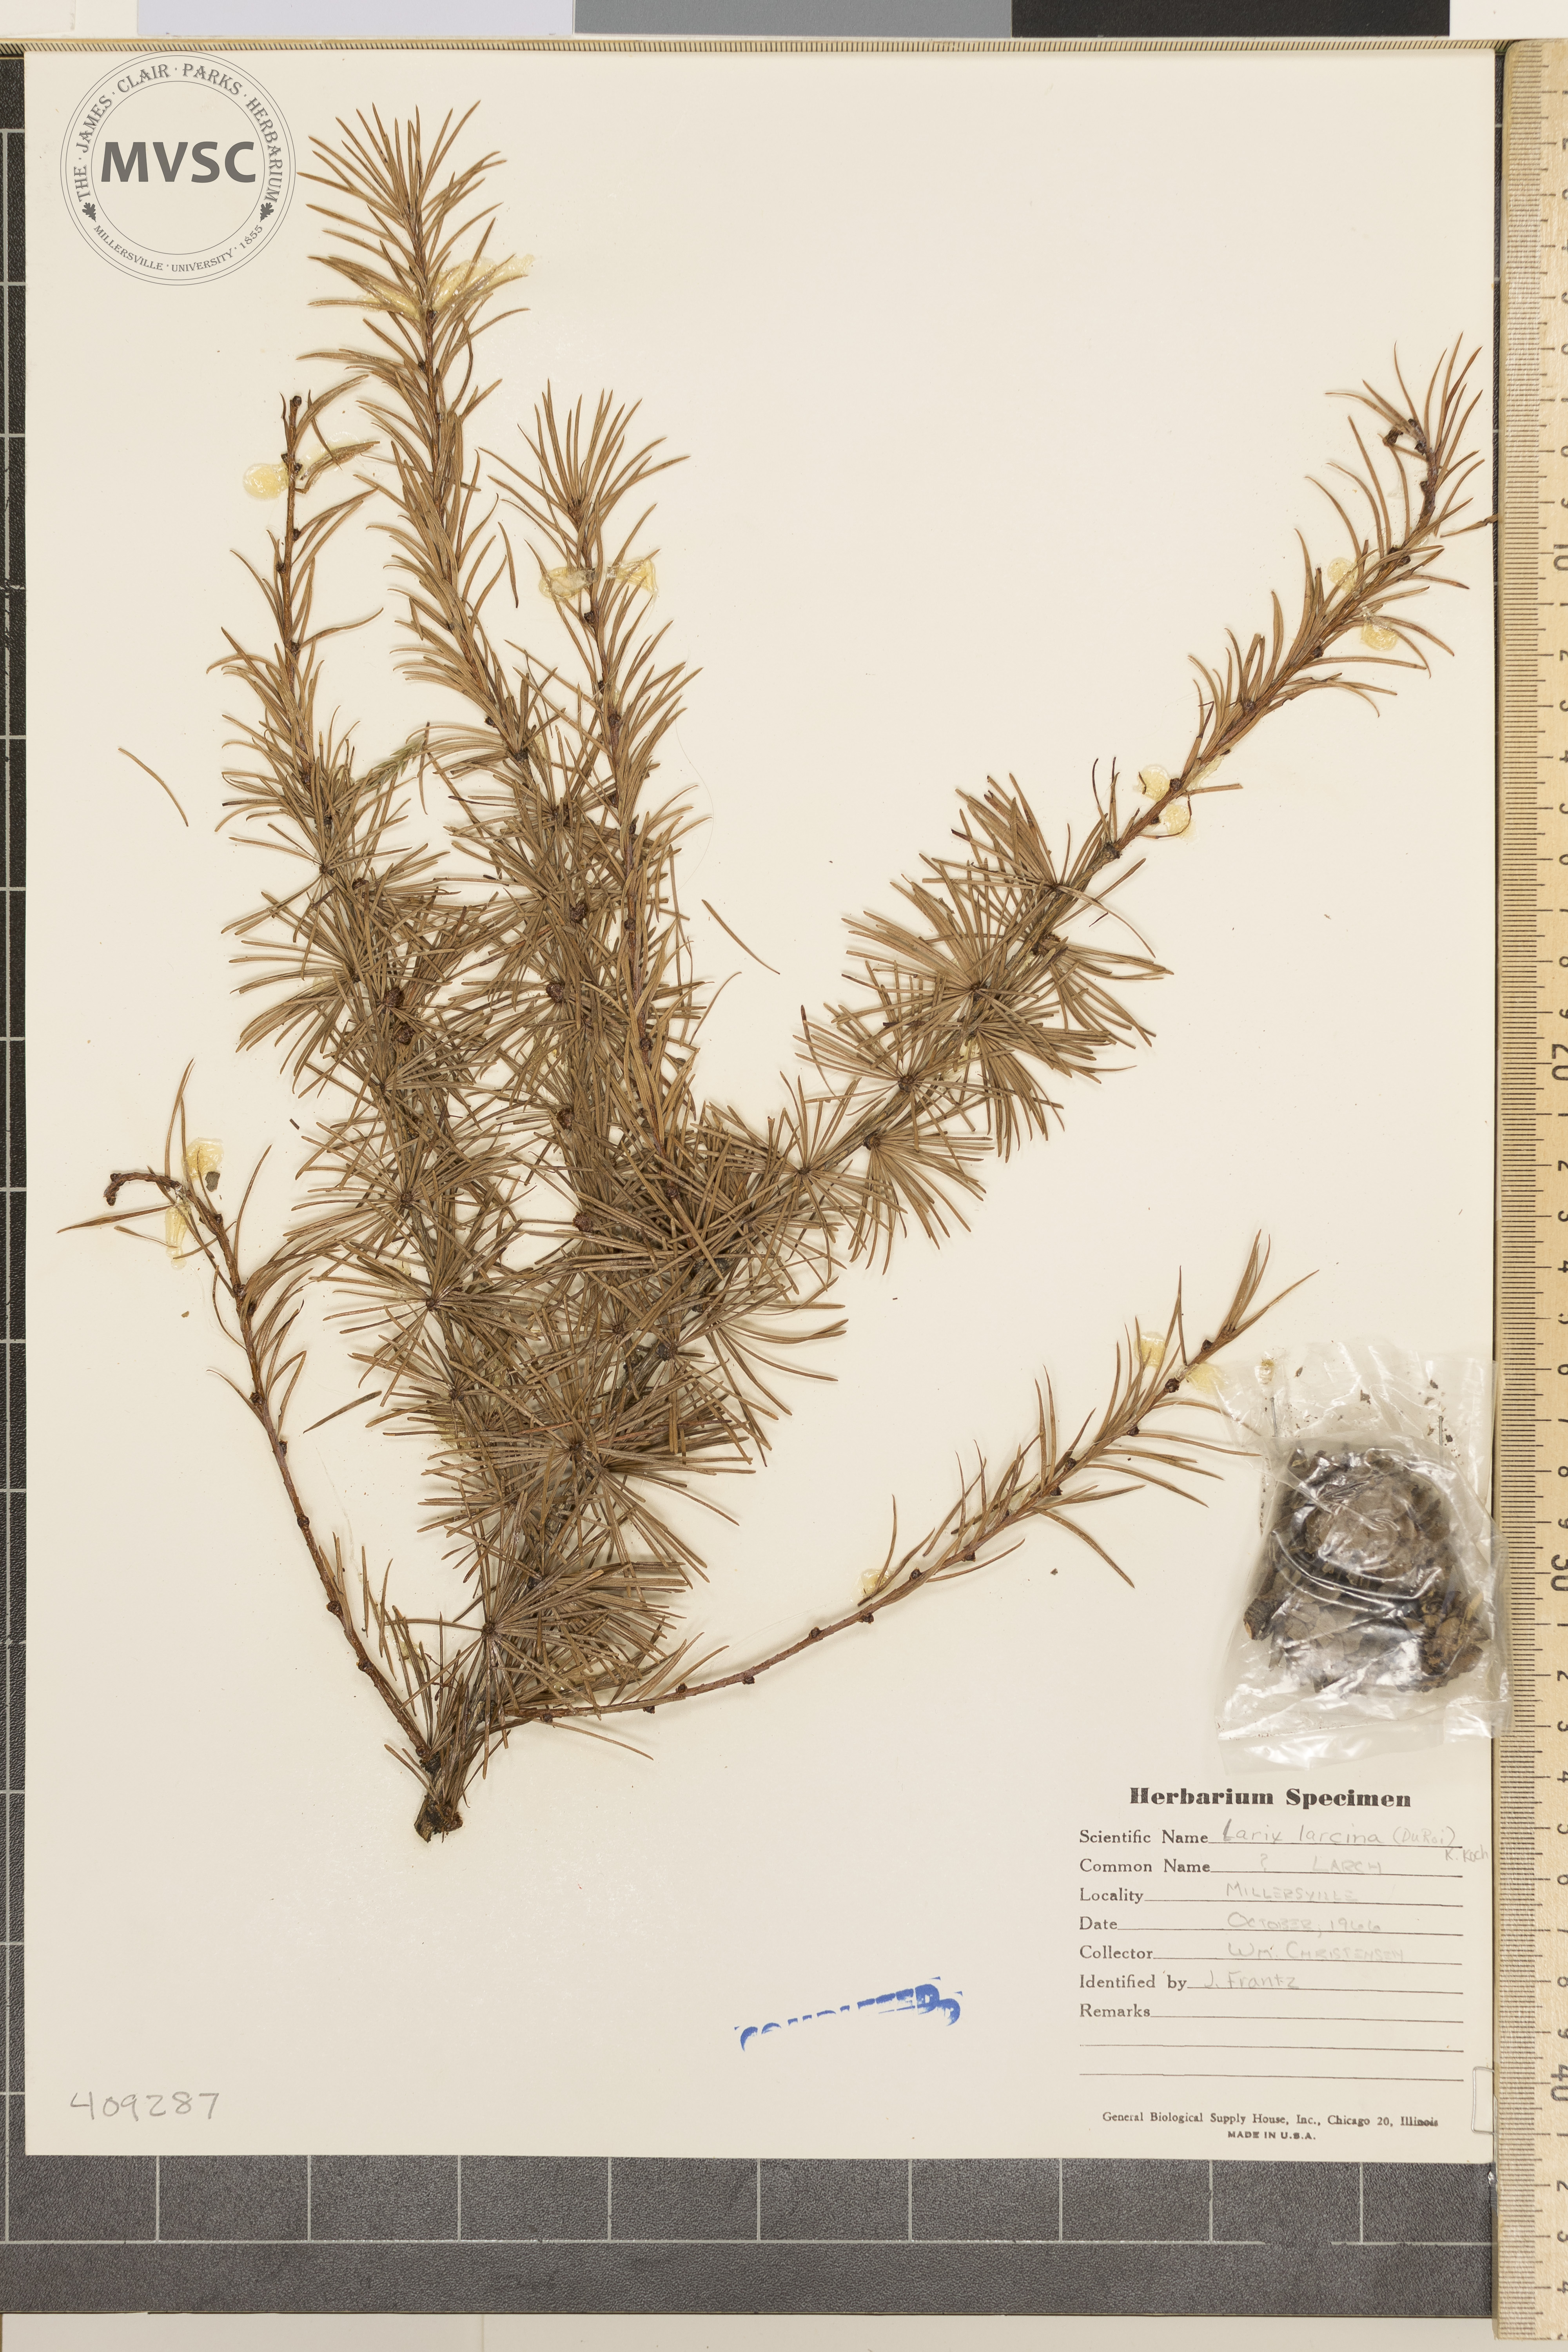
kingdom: Plantae
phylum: Tracheophyta
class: Pinopsida
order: Pinales
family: Pinaceae
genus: Larix
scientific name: Larix laricina
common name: American larch
